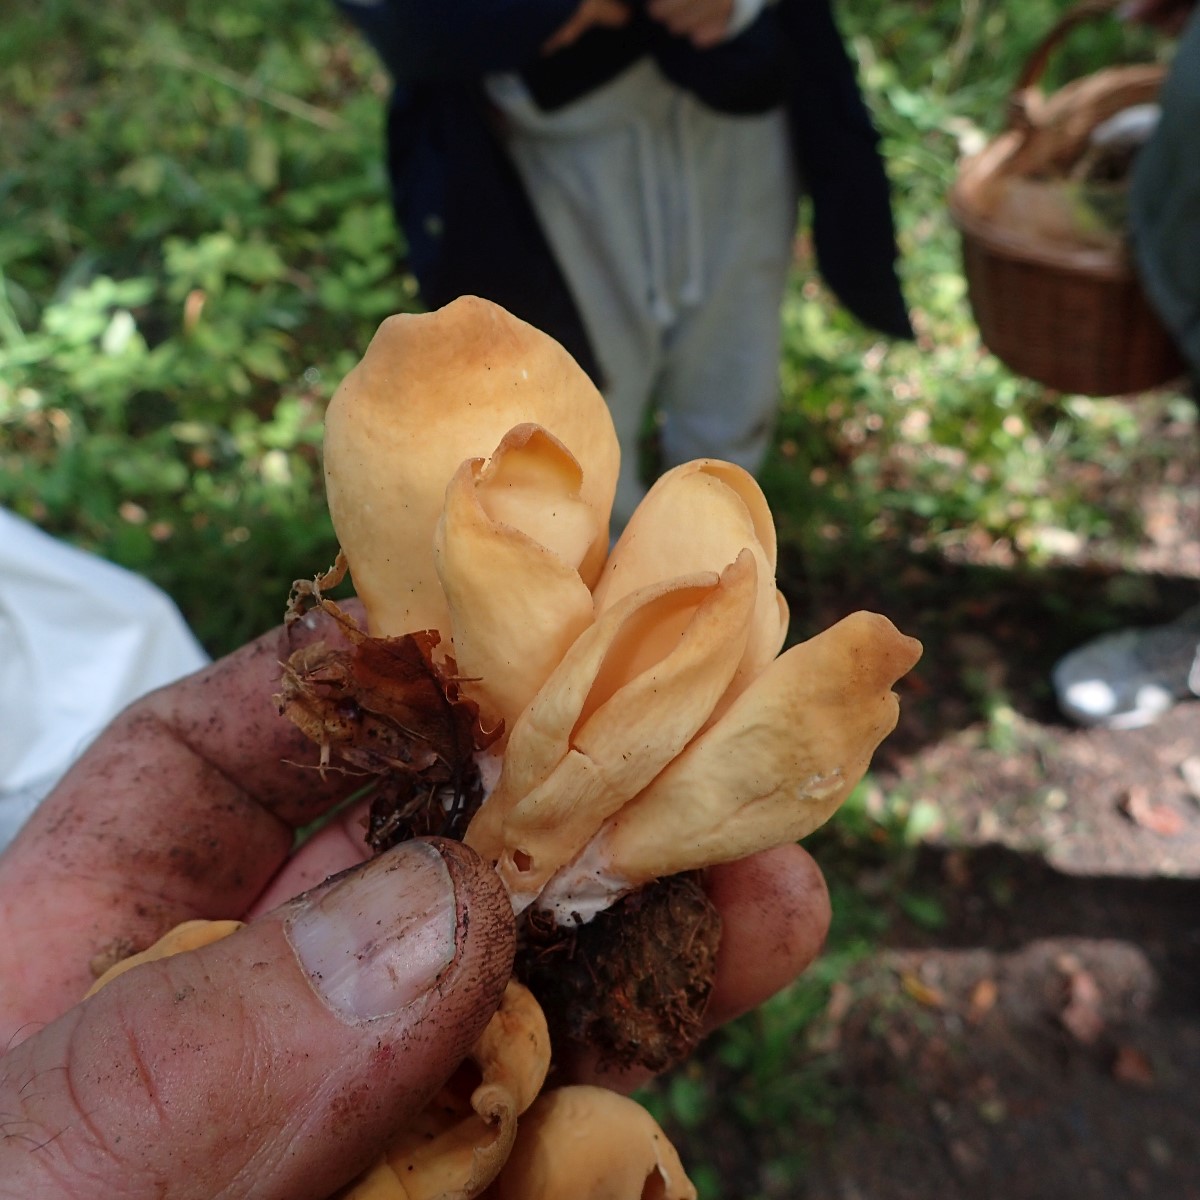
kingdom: Fungi
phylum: Ascomycota
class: Pezizomycetes
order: Pezizales
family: Otideaceae
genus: Otidea
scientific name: Otidea onotica
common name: æsel-ørebæger
